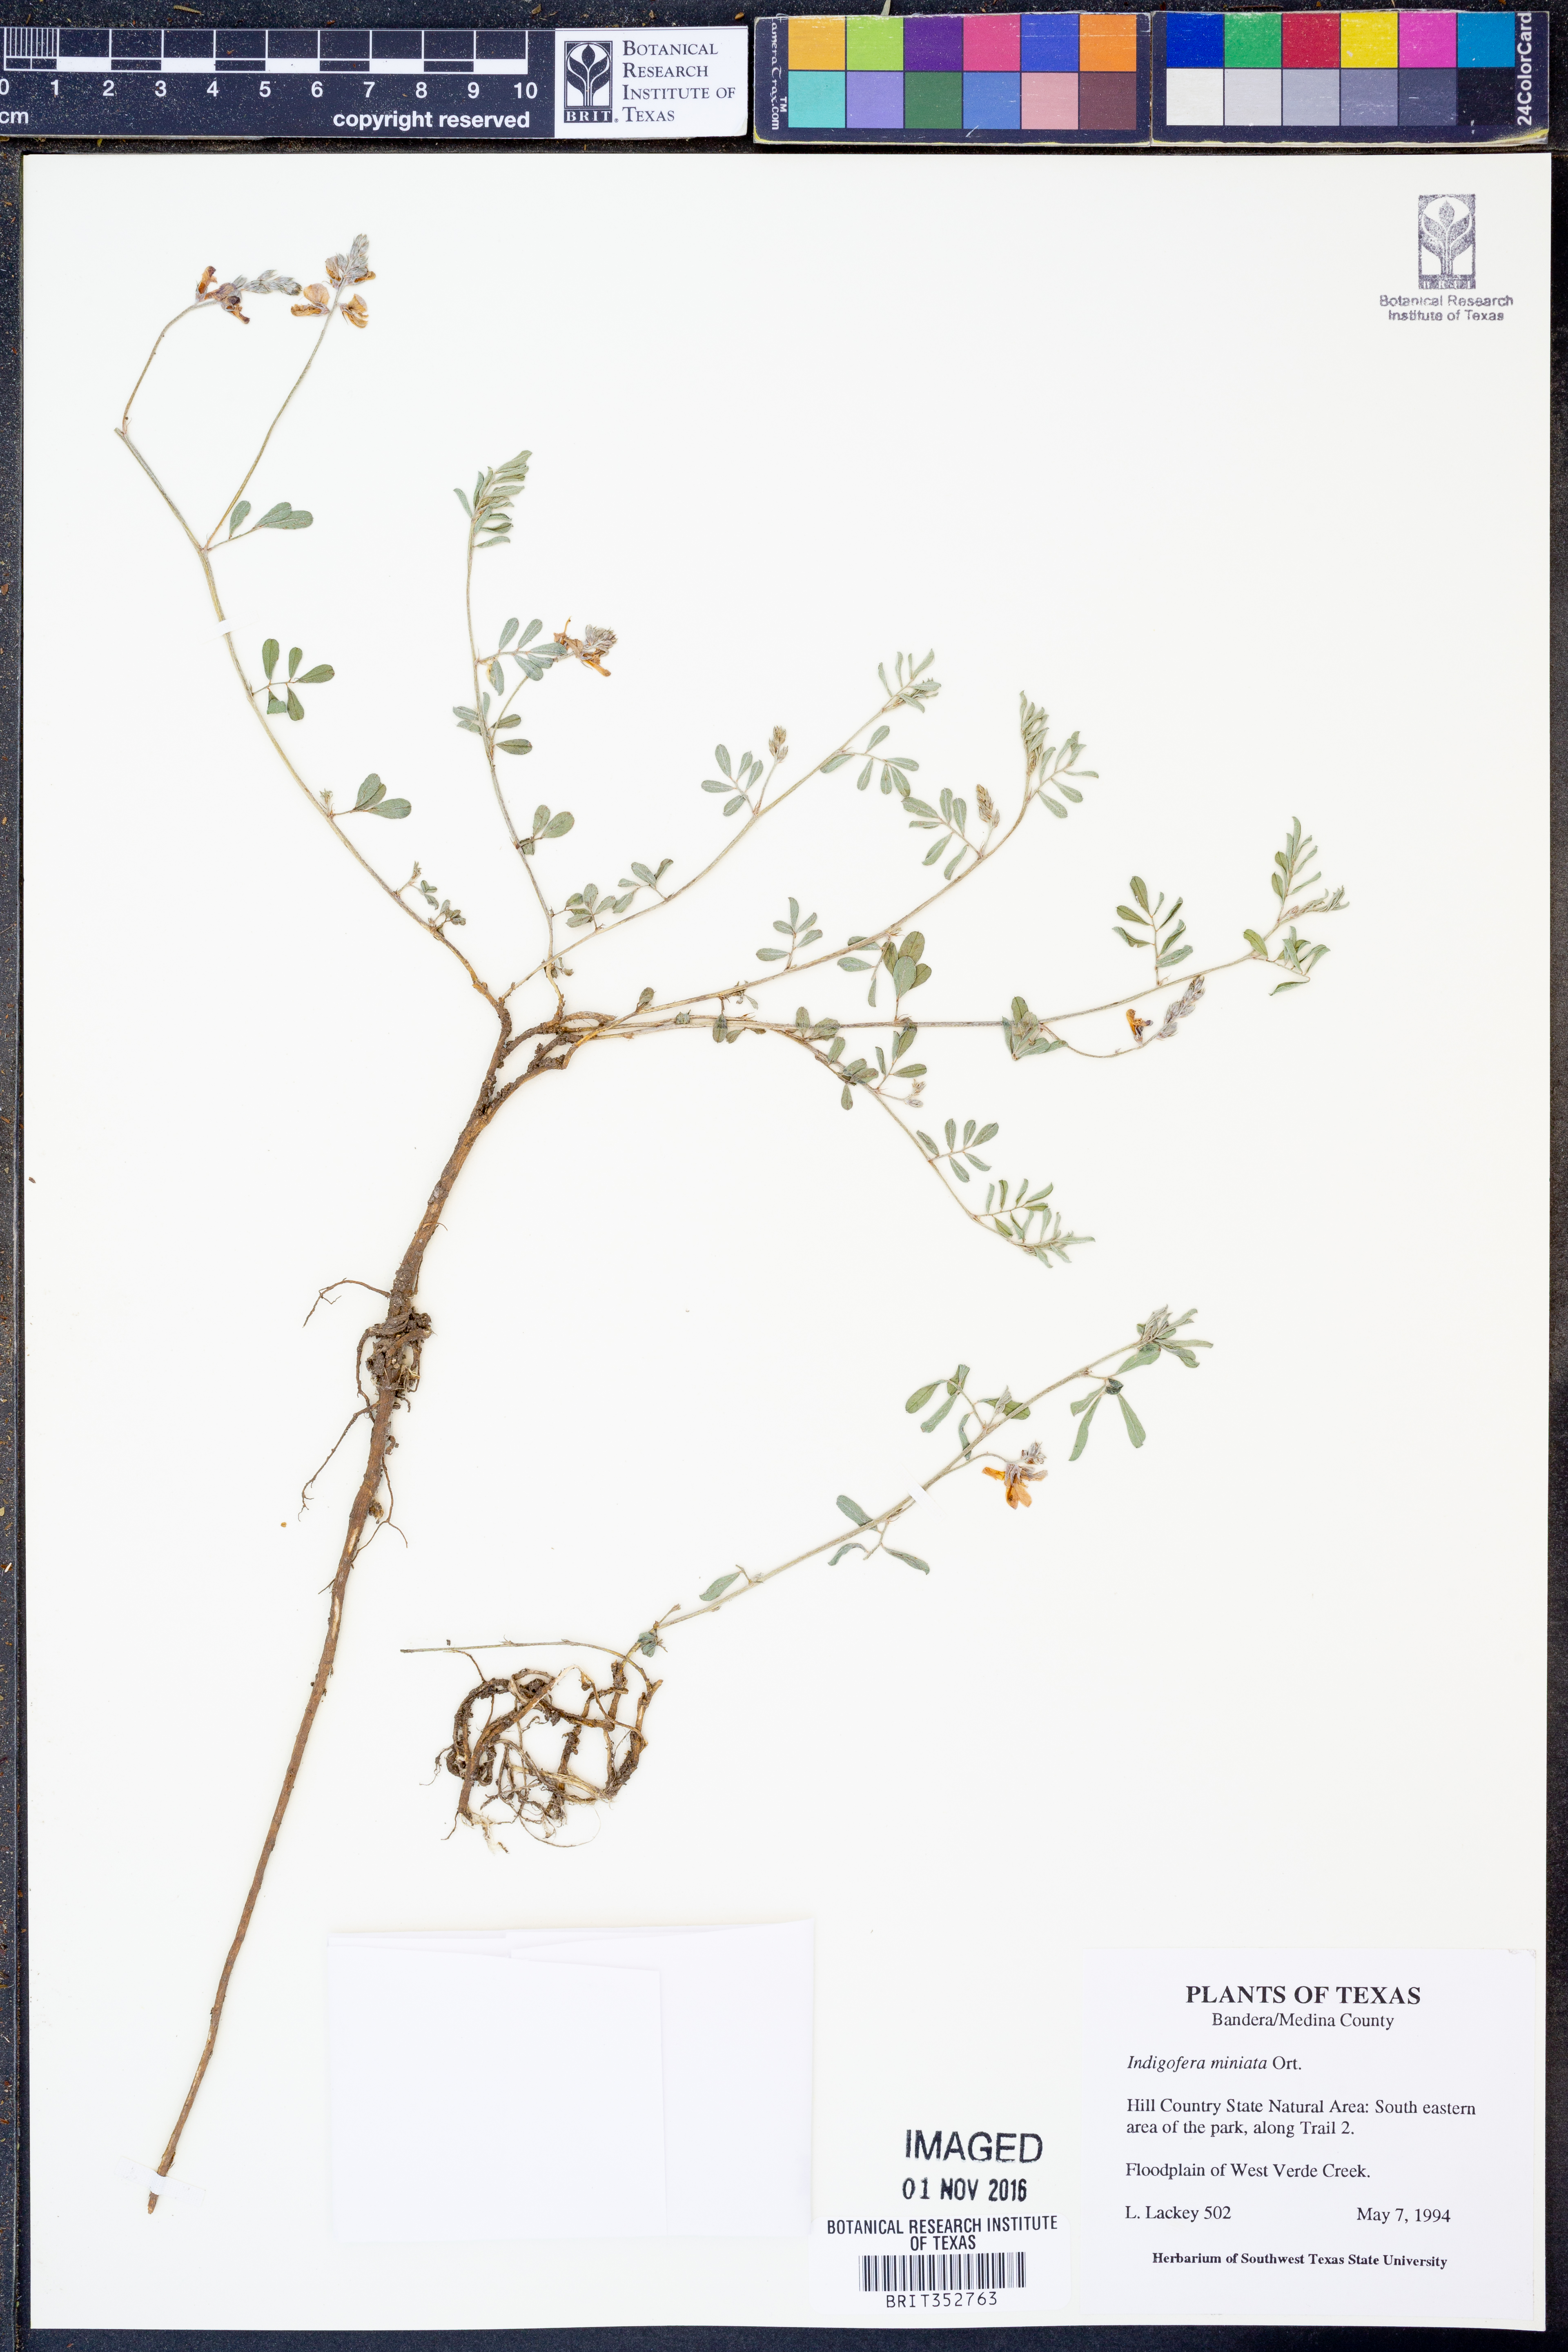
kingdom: Plantae
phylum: Tracheophyta
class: Magnoliopsida
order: Fabales
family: Fabaceae
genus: Indigofera
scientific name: Indigofera miniata
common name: Coast indigo
